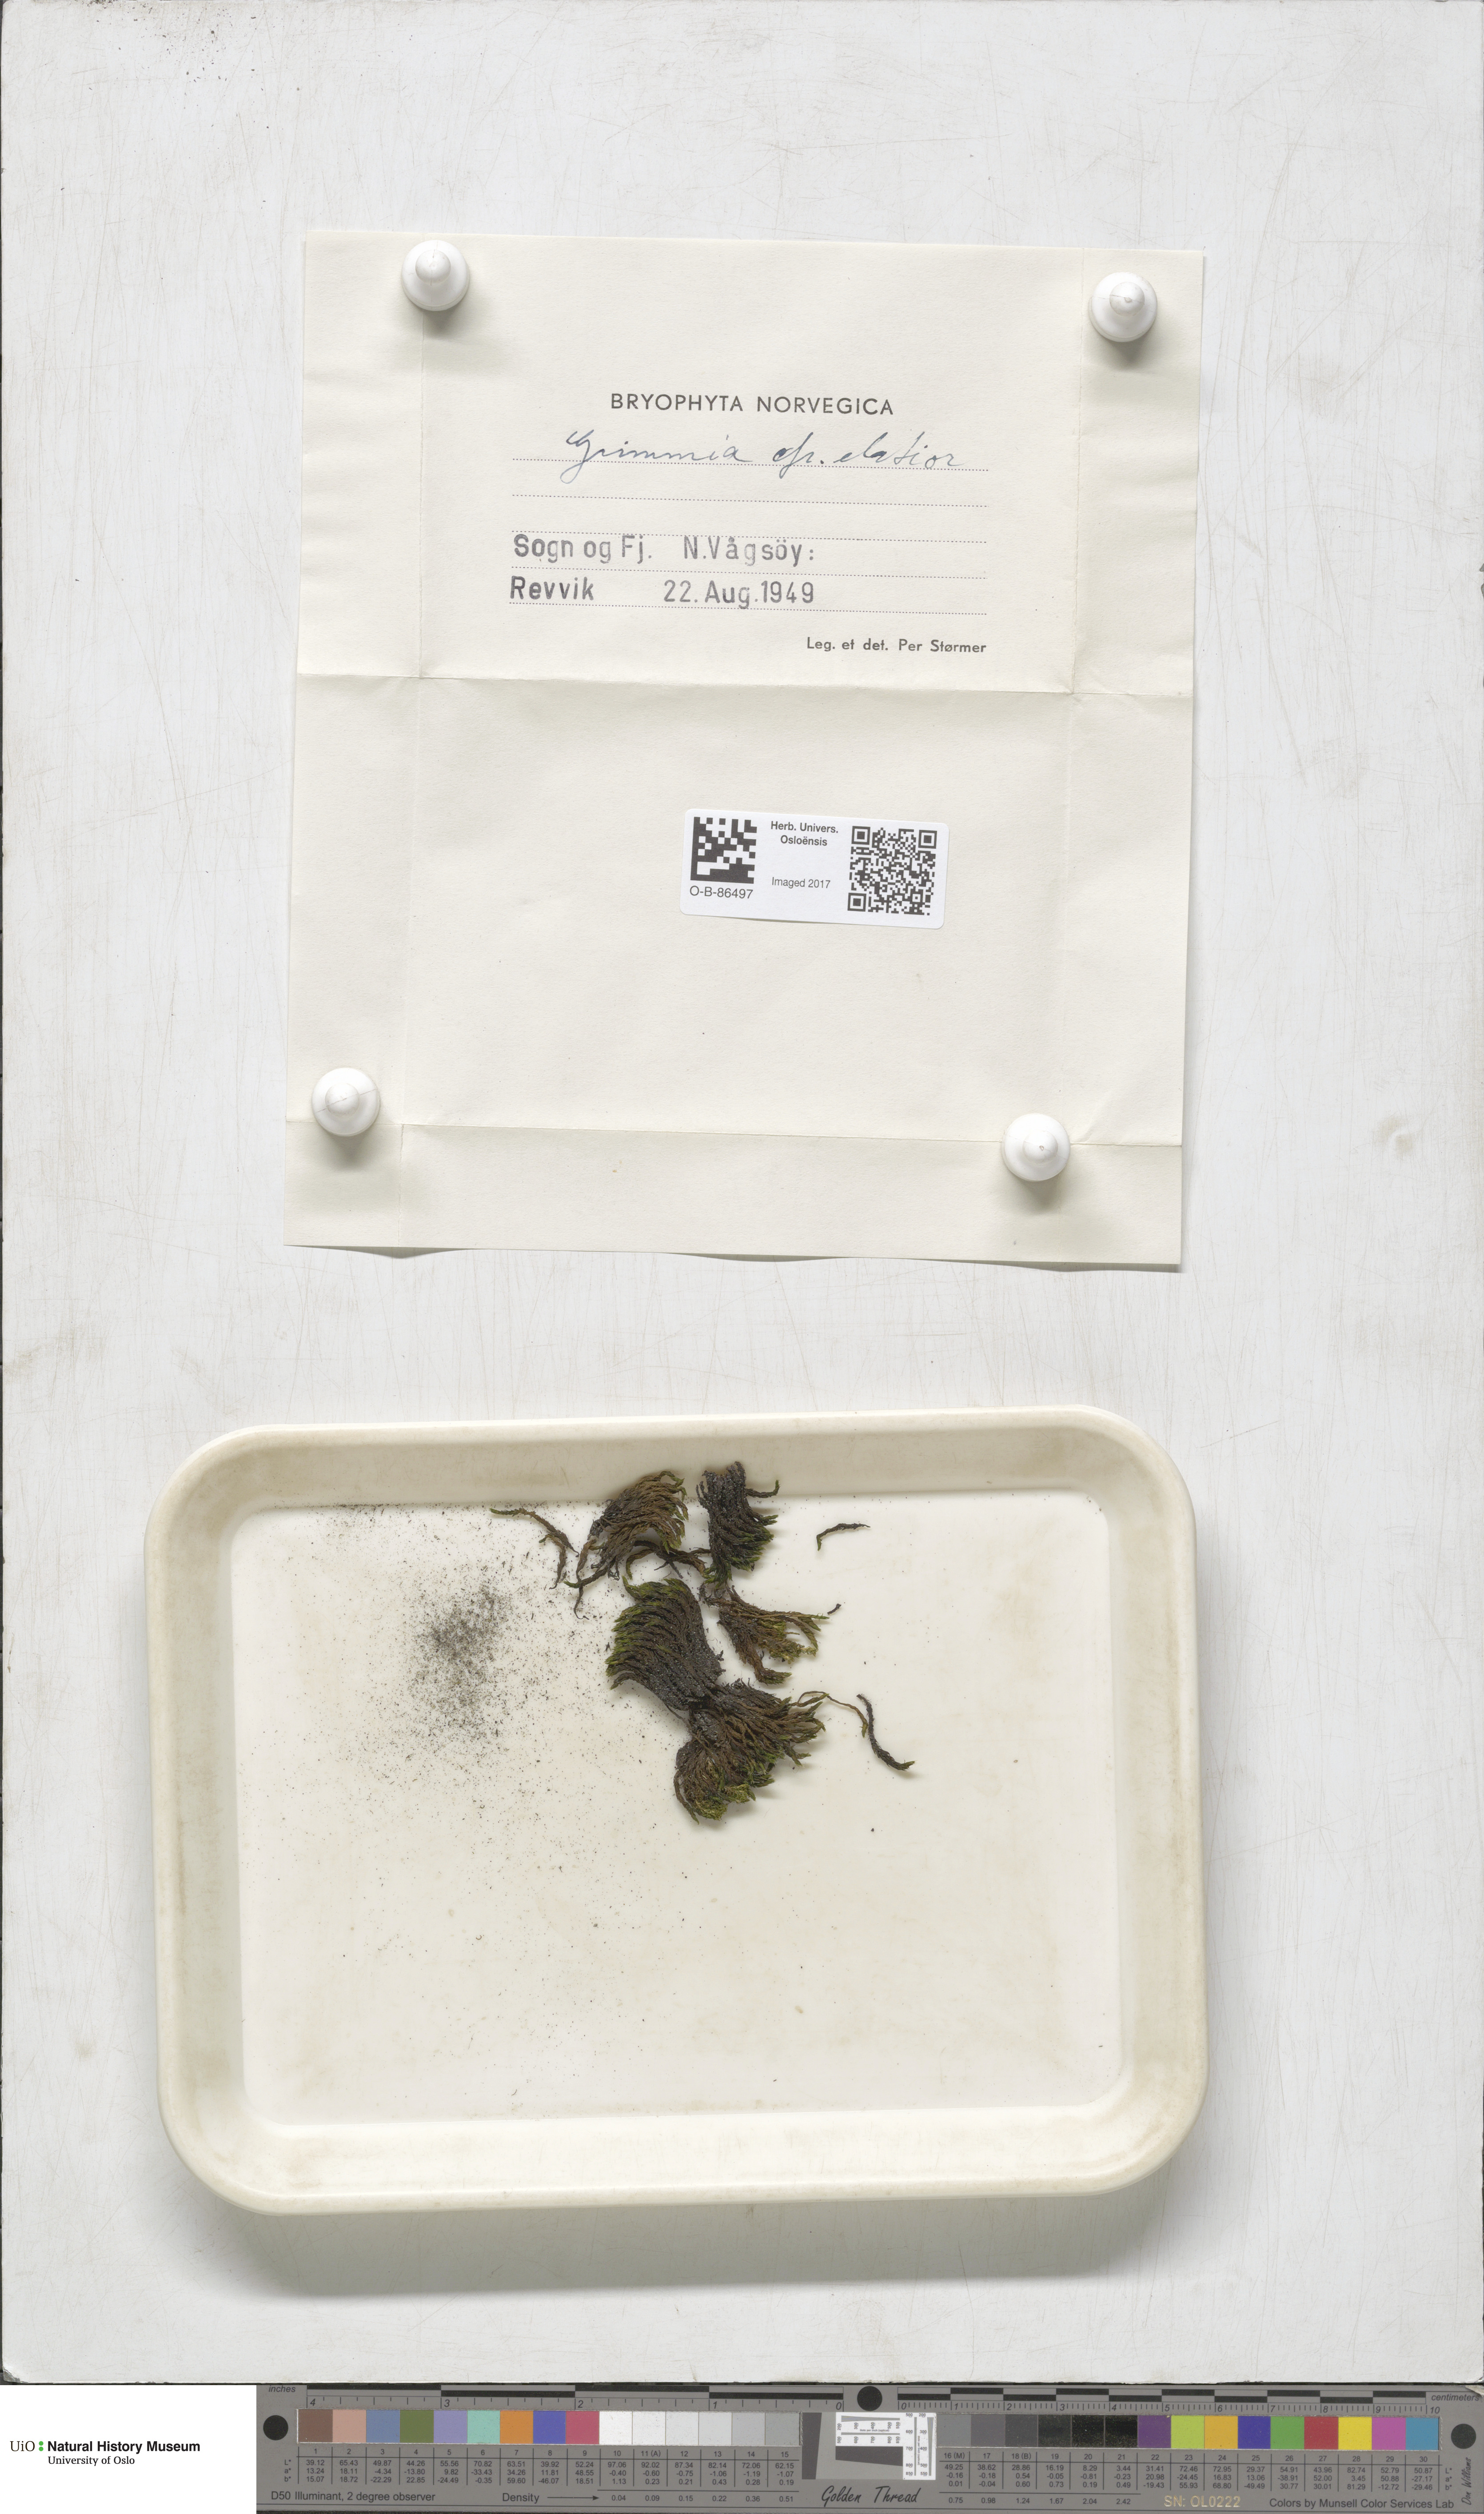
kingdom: Plantae
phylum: Bryophyta
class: Bryopsida
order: Grimmiales
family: Grimmiaceae
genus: Grimmia
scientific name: Grimmia elatior
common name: Large grimmia
